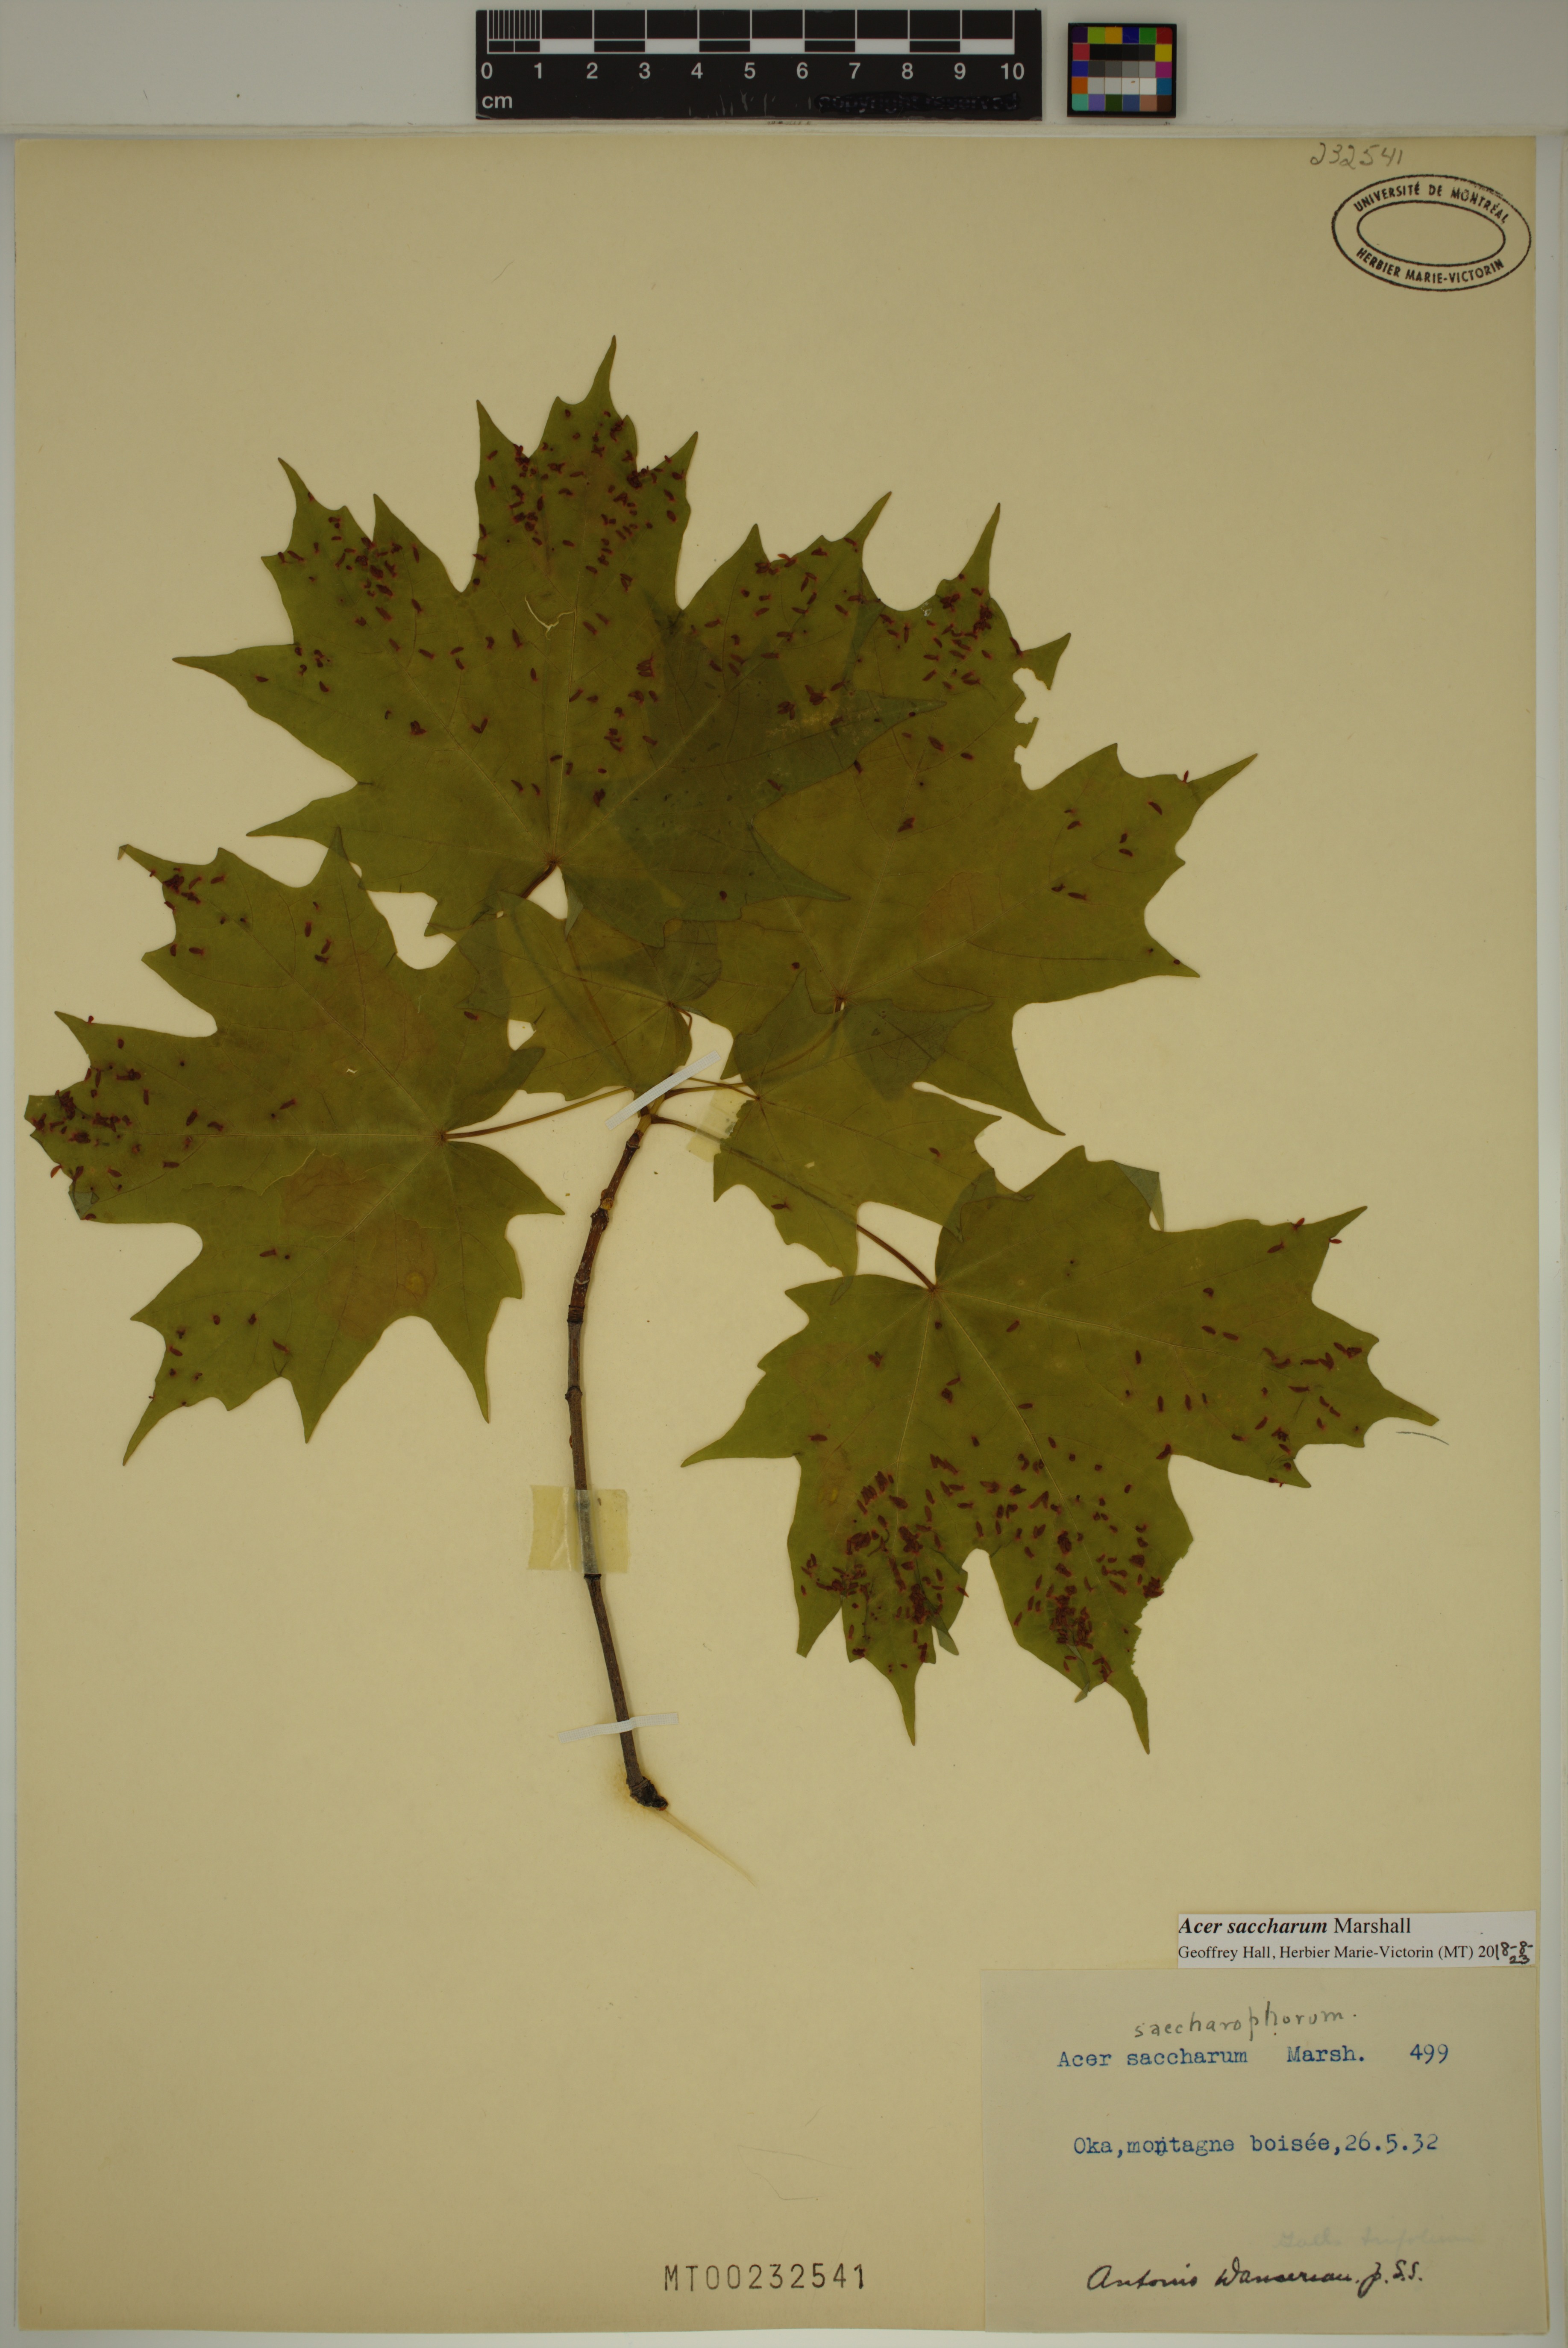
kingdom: Plantae
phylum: Tracheophyta
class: Magnoliopsida
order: Sapindales
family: Sapindaceae
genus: Acer
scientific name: Acer saccharum
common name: Sugar maple
